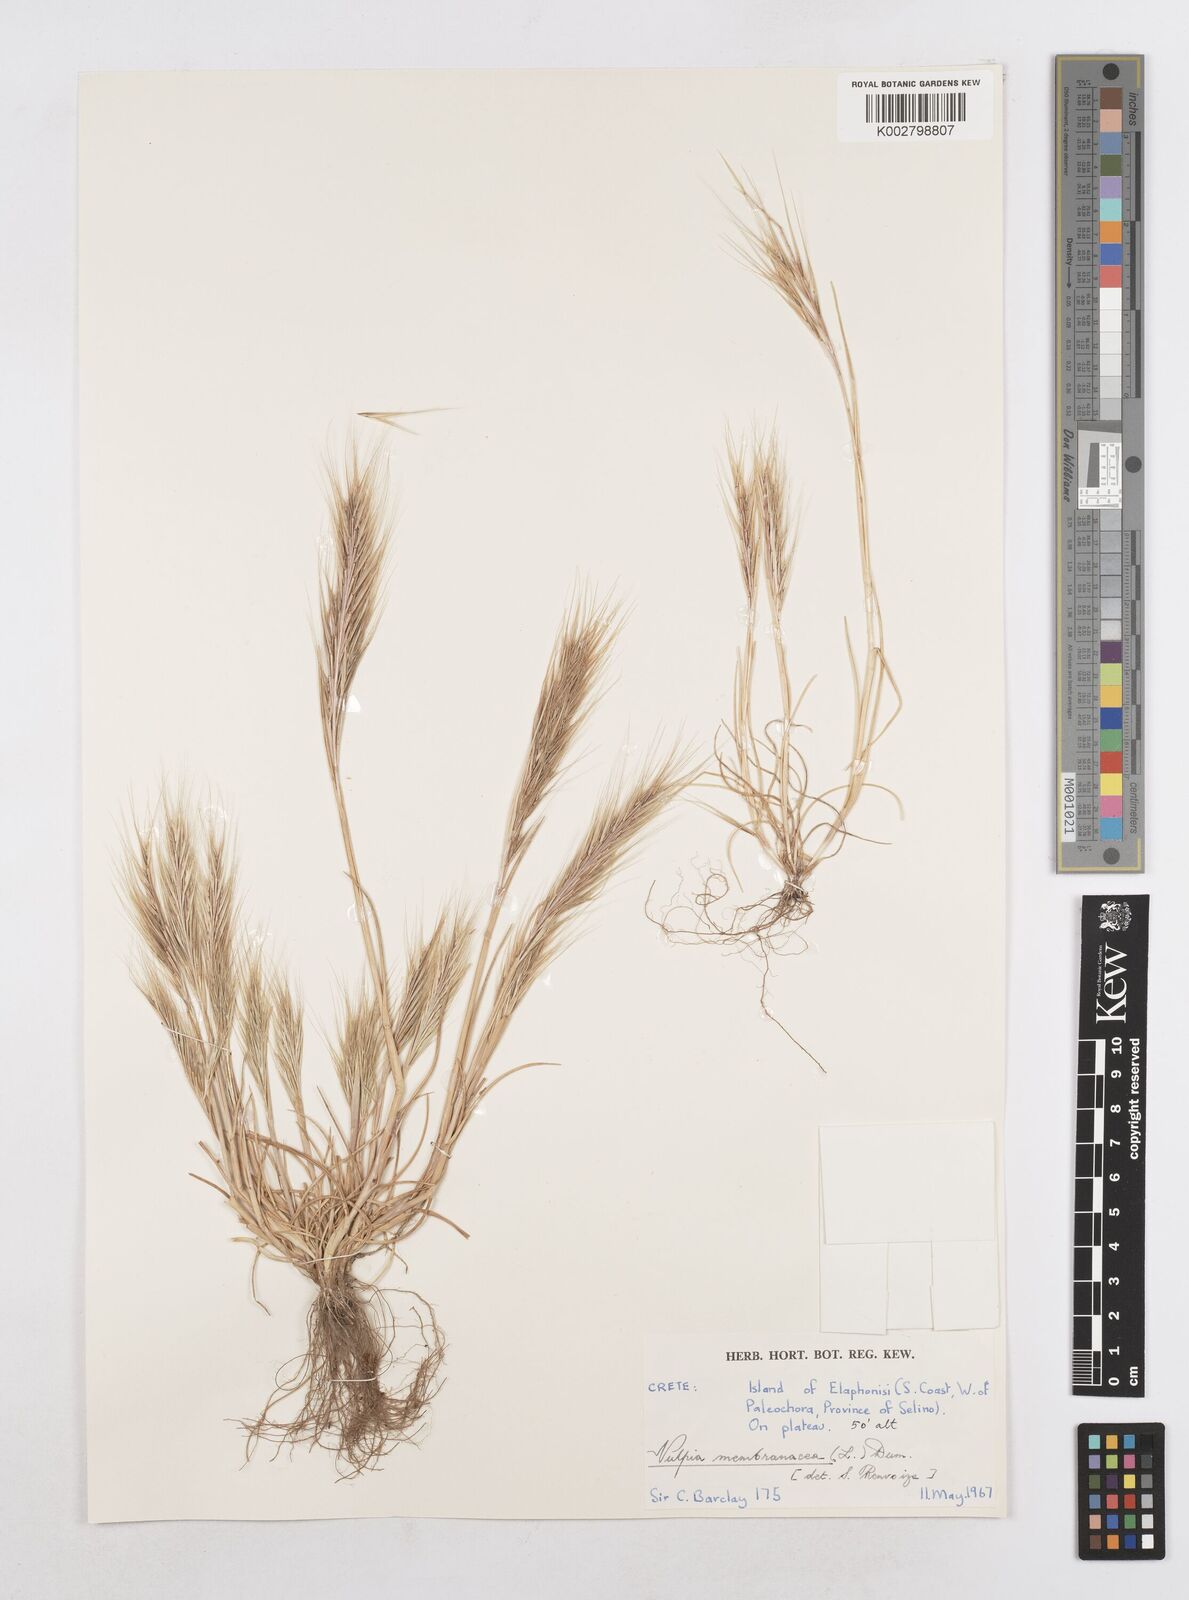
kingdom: Plantae
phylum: Tracheophyta
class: Liliopsida
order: Poales
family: Poaceae
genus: Festuca
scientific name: Festuca fasciculata
